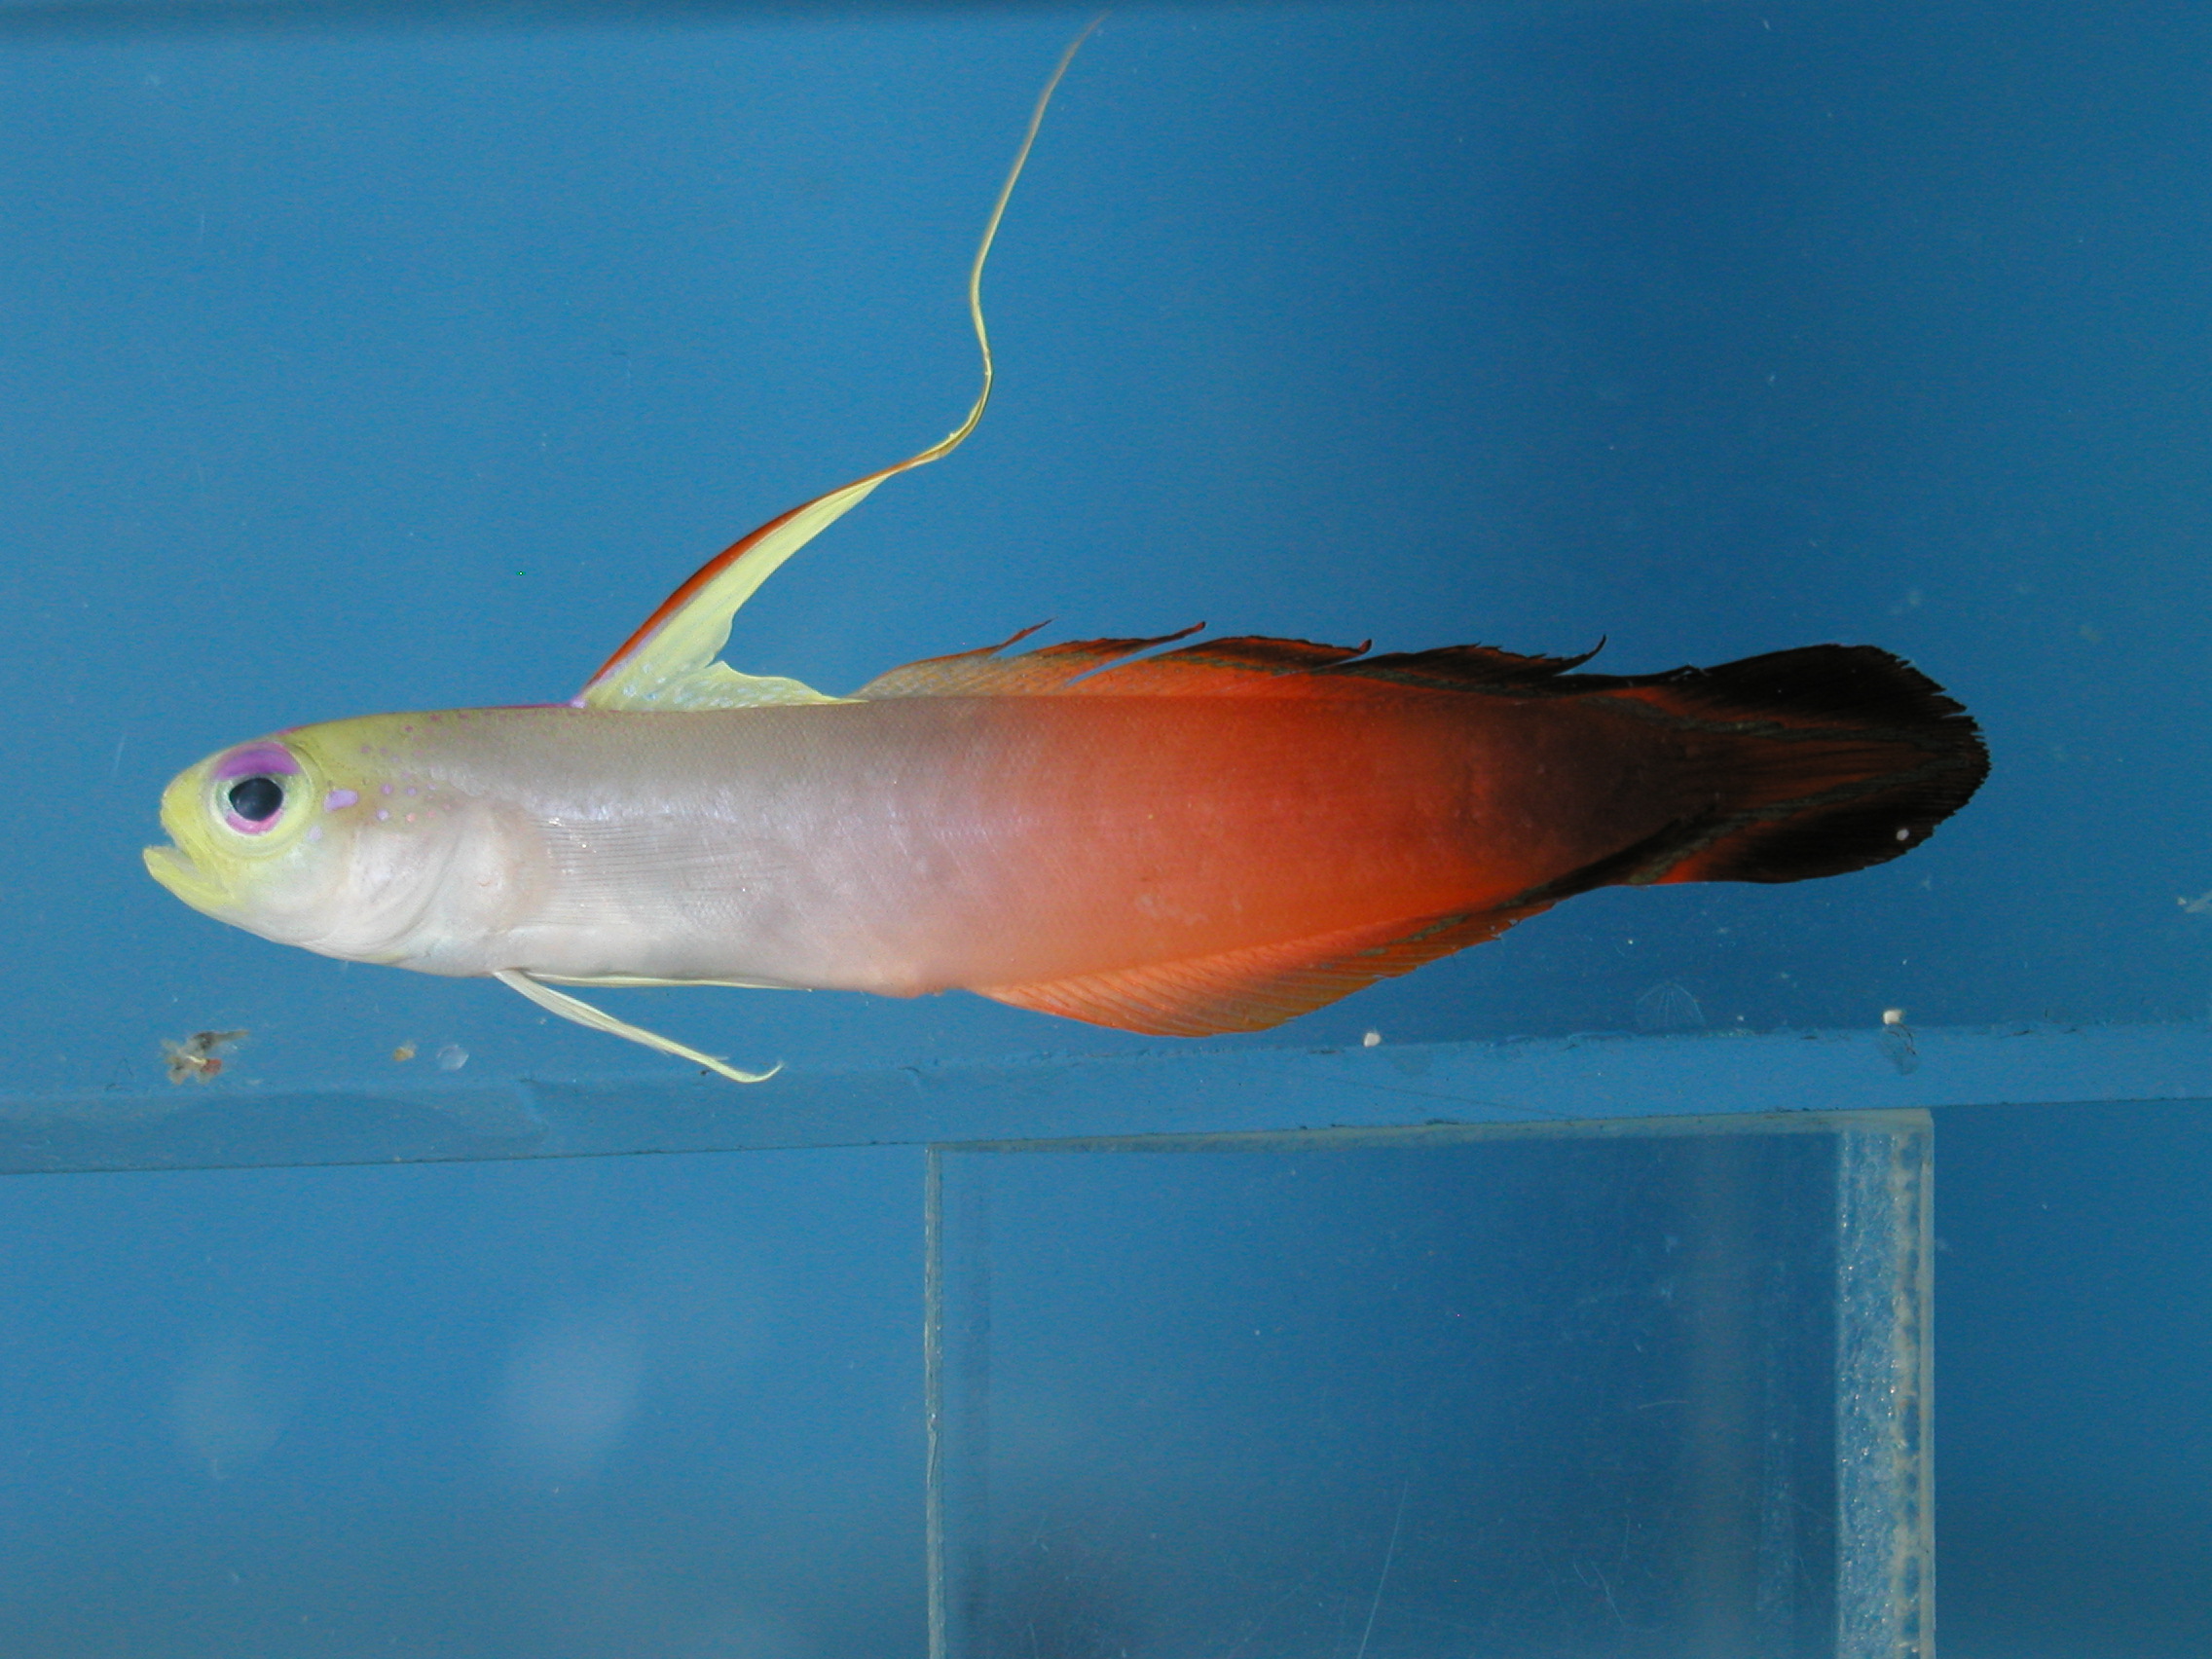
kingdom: Animalia
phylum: Chordata
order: Perciformes
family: Microdesmidae
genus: Nemateleotris
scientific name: Nemateleotris magnifica
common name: Fire goby
